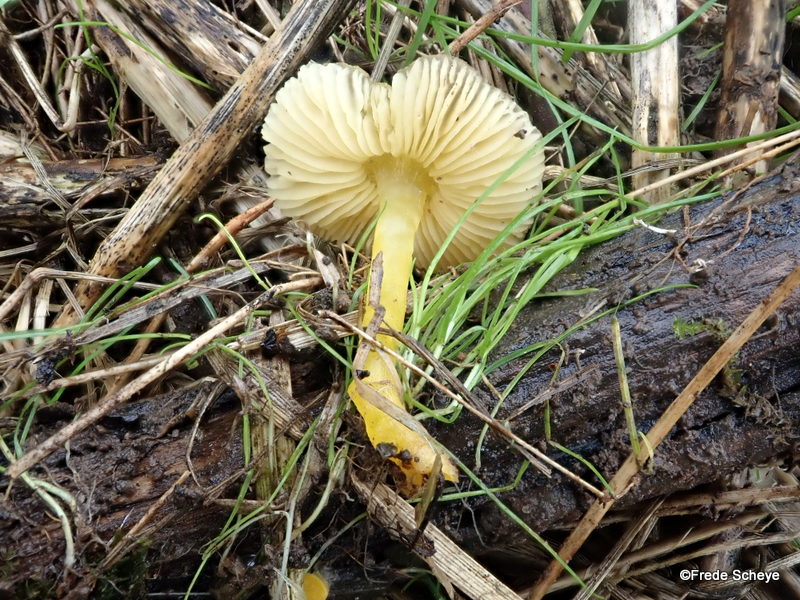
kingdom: Fungi
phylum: Basidiomycota
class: Agaricomycetes
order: Agaricales
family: Pluteaceae
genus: Pluteus
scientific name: Pluteus romellii
